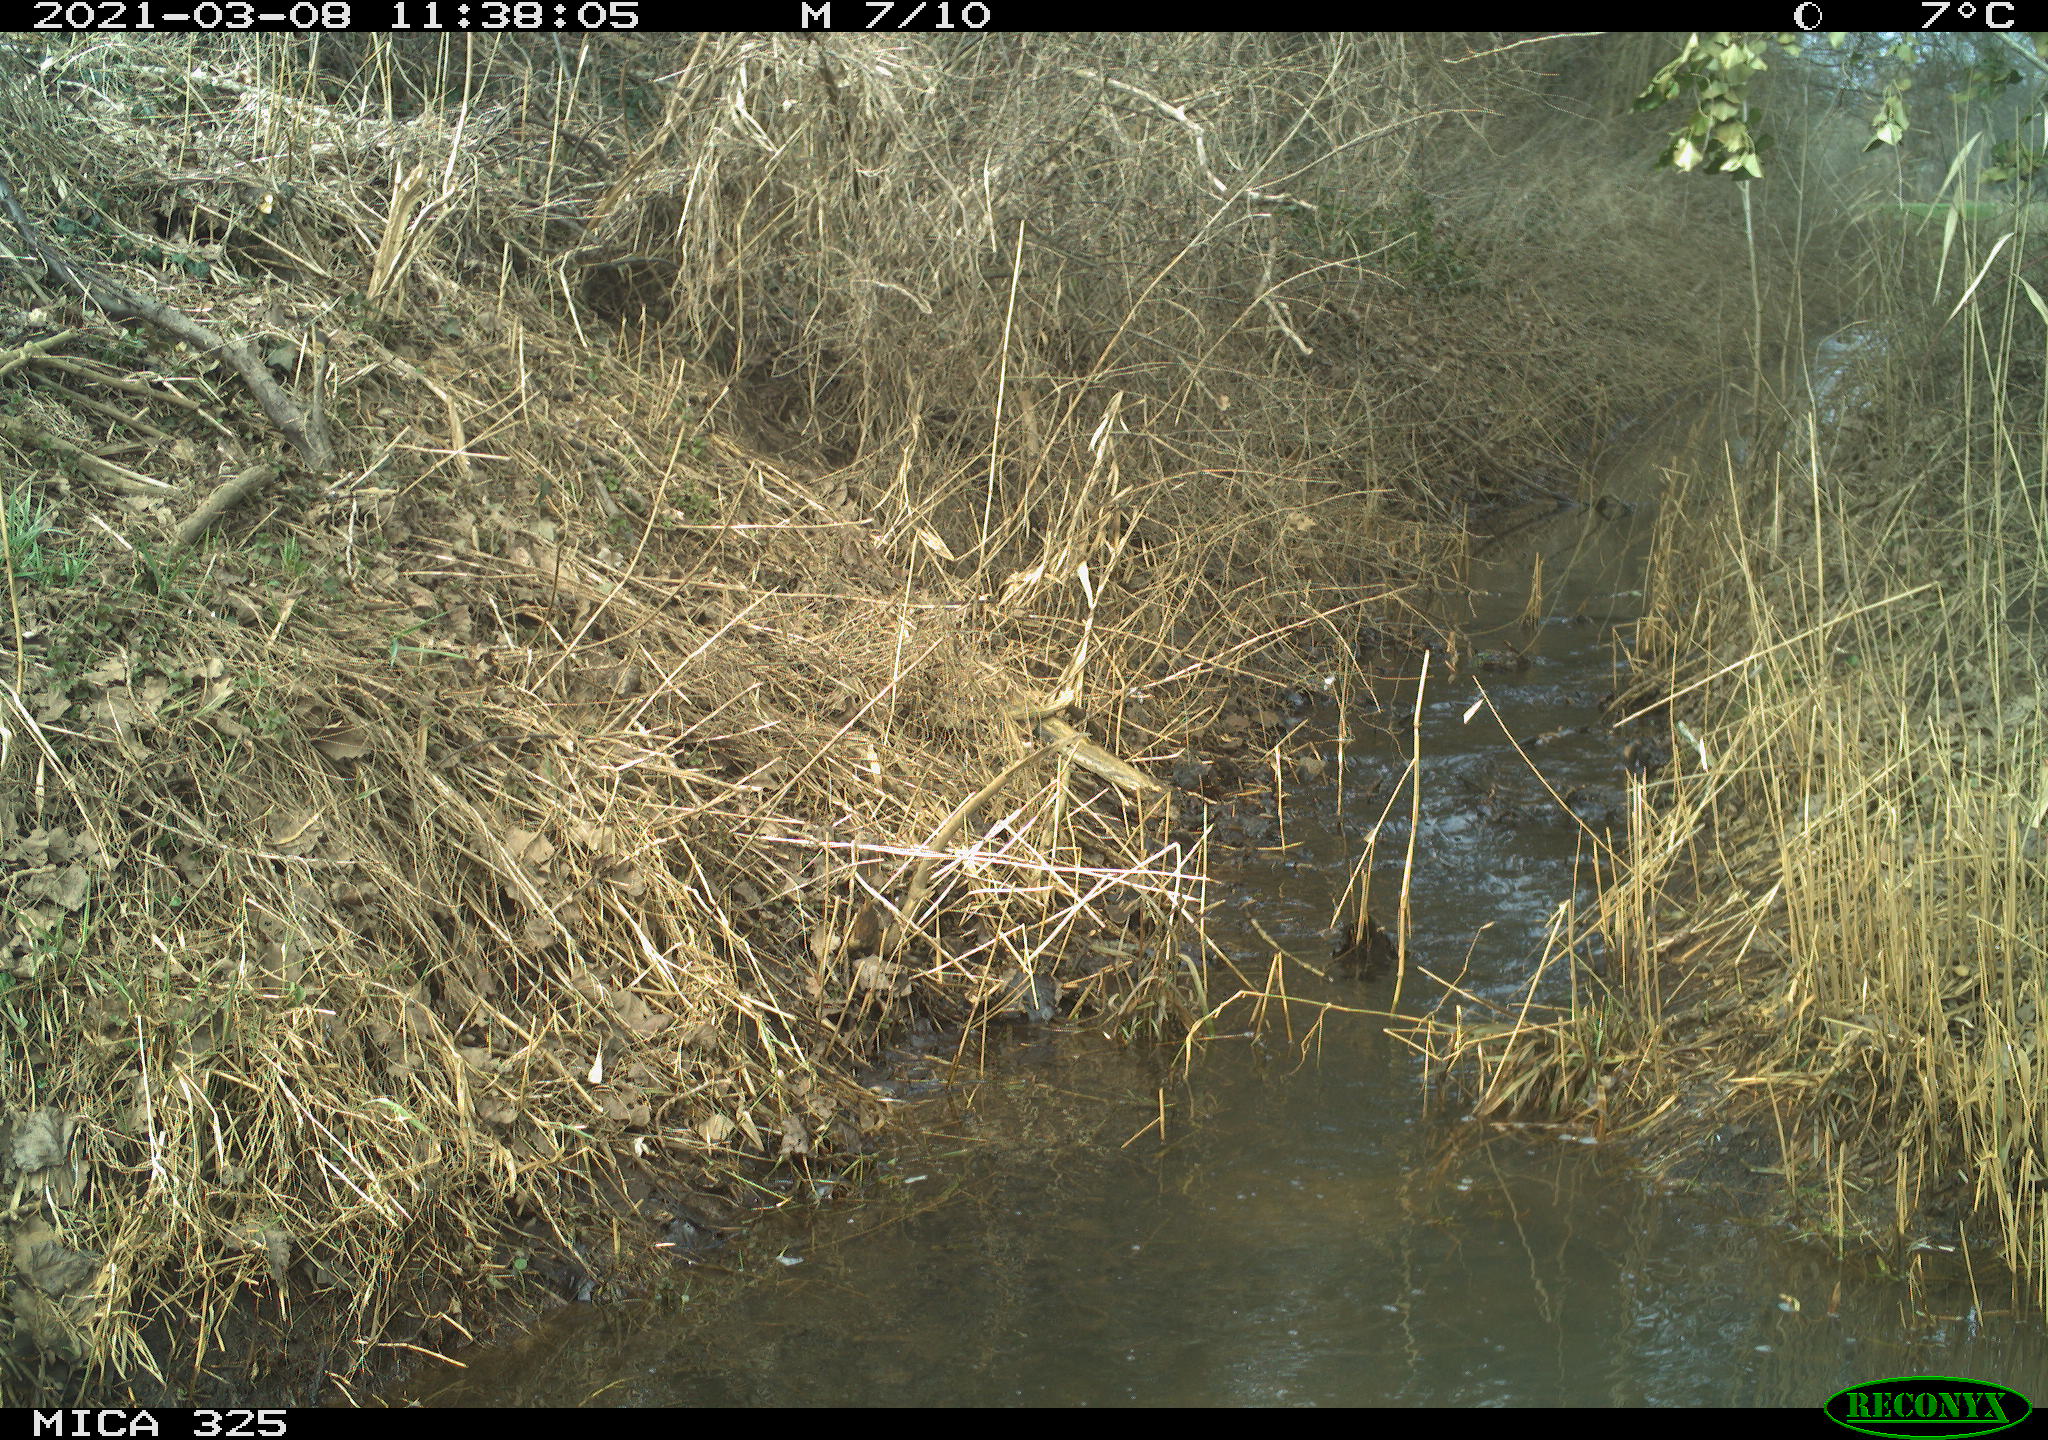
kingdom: Animalia
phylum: Chordata
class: Mammalia
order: Lagomorpha
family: Leporidae
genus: Lepus
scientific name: Lepus europaeus
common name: European hare
